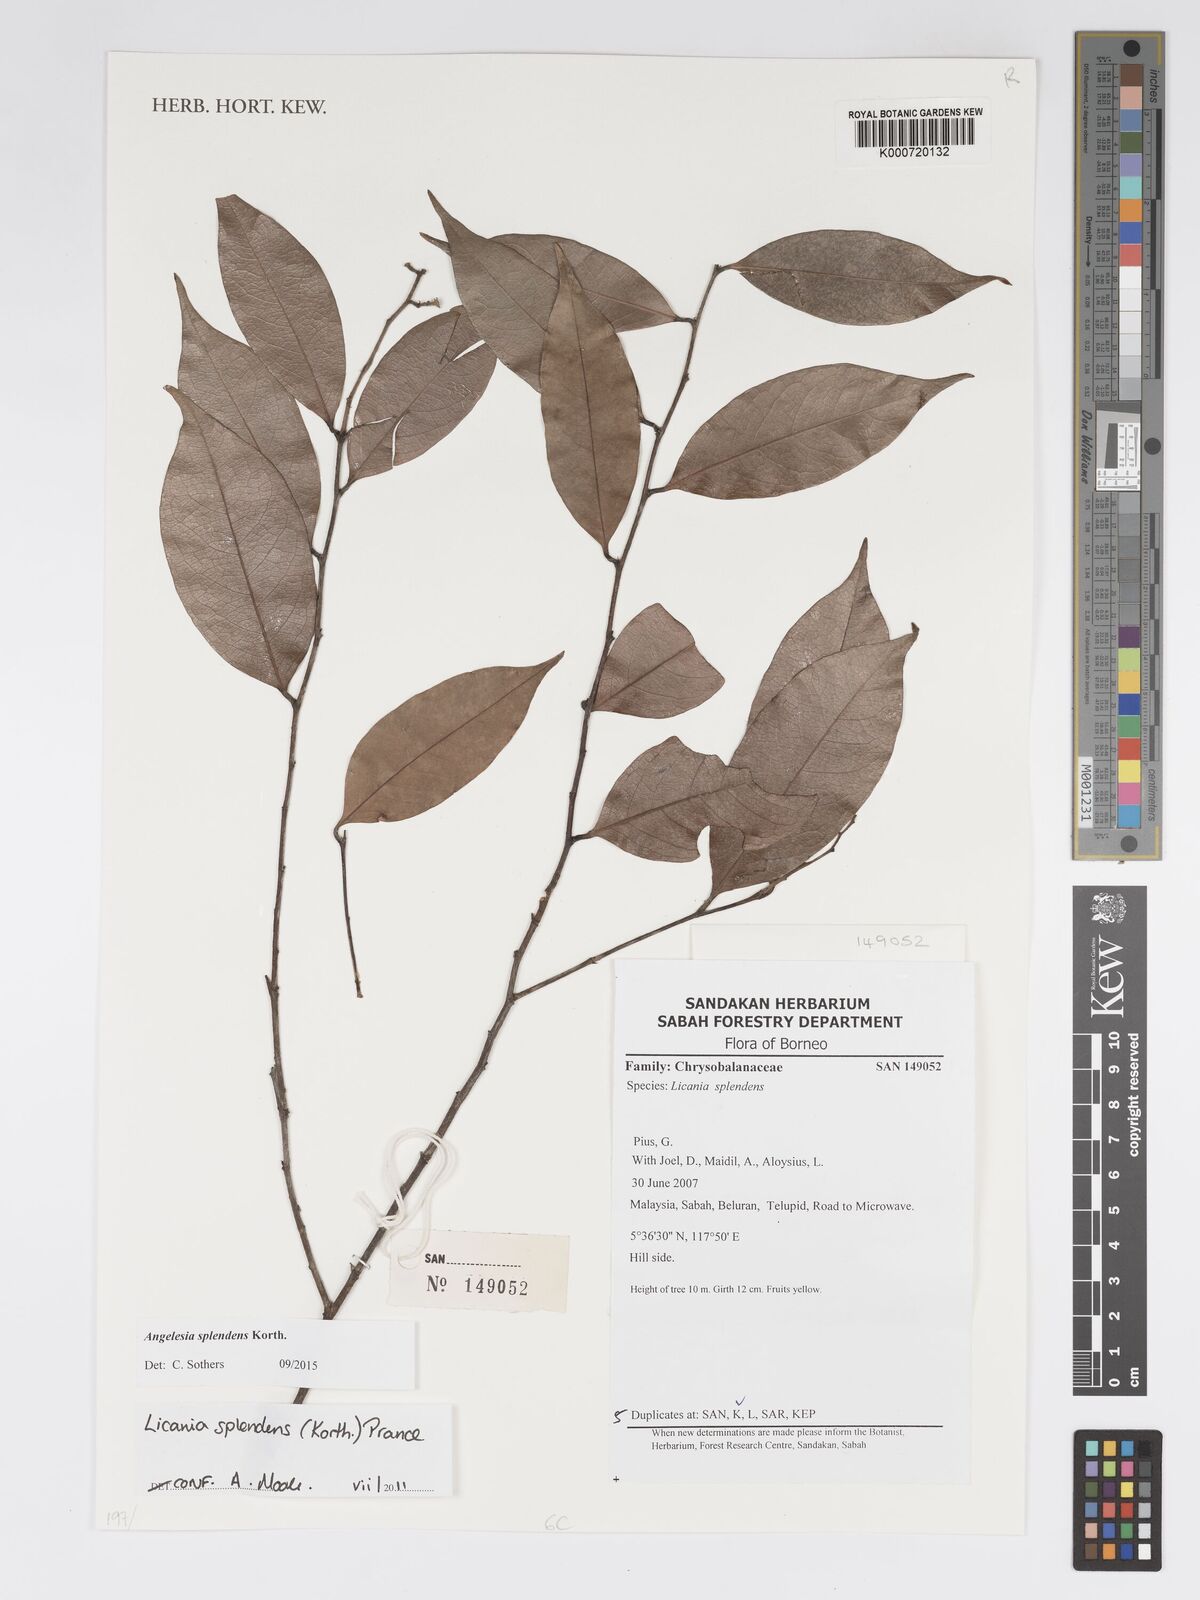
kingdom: Plantae
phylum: Tracheophyta
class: Magnoliopsida
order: Malpighiales
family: Chrysobalanaceae
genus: Angelesia
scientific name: Angelesia splendens
